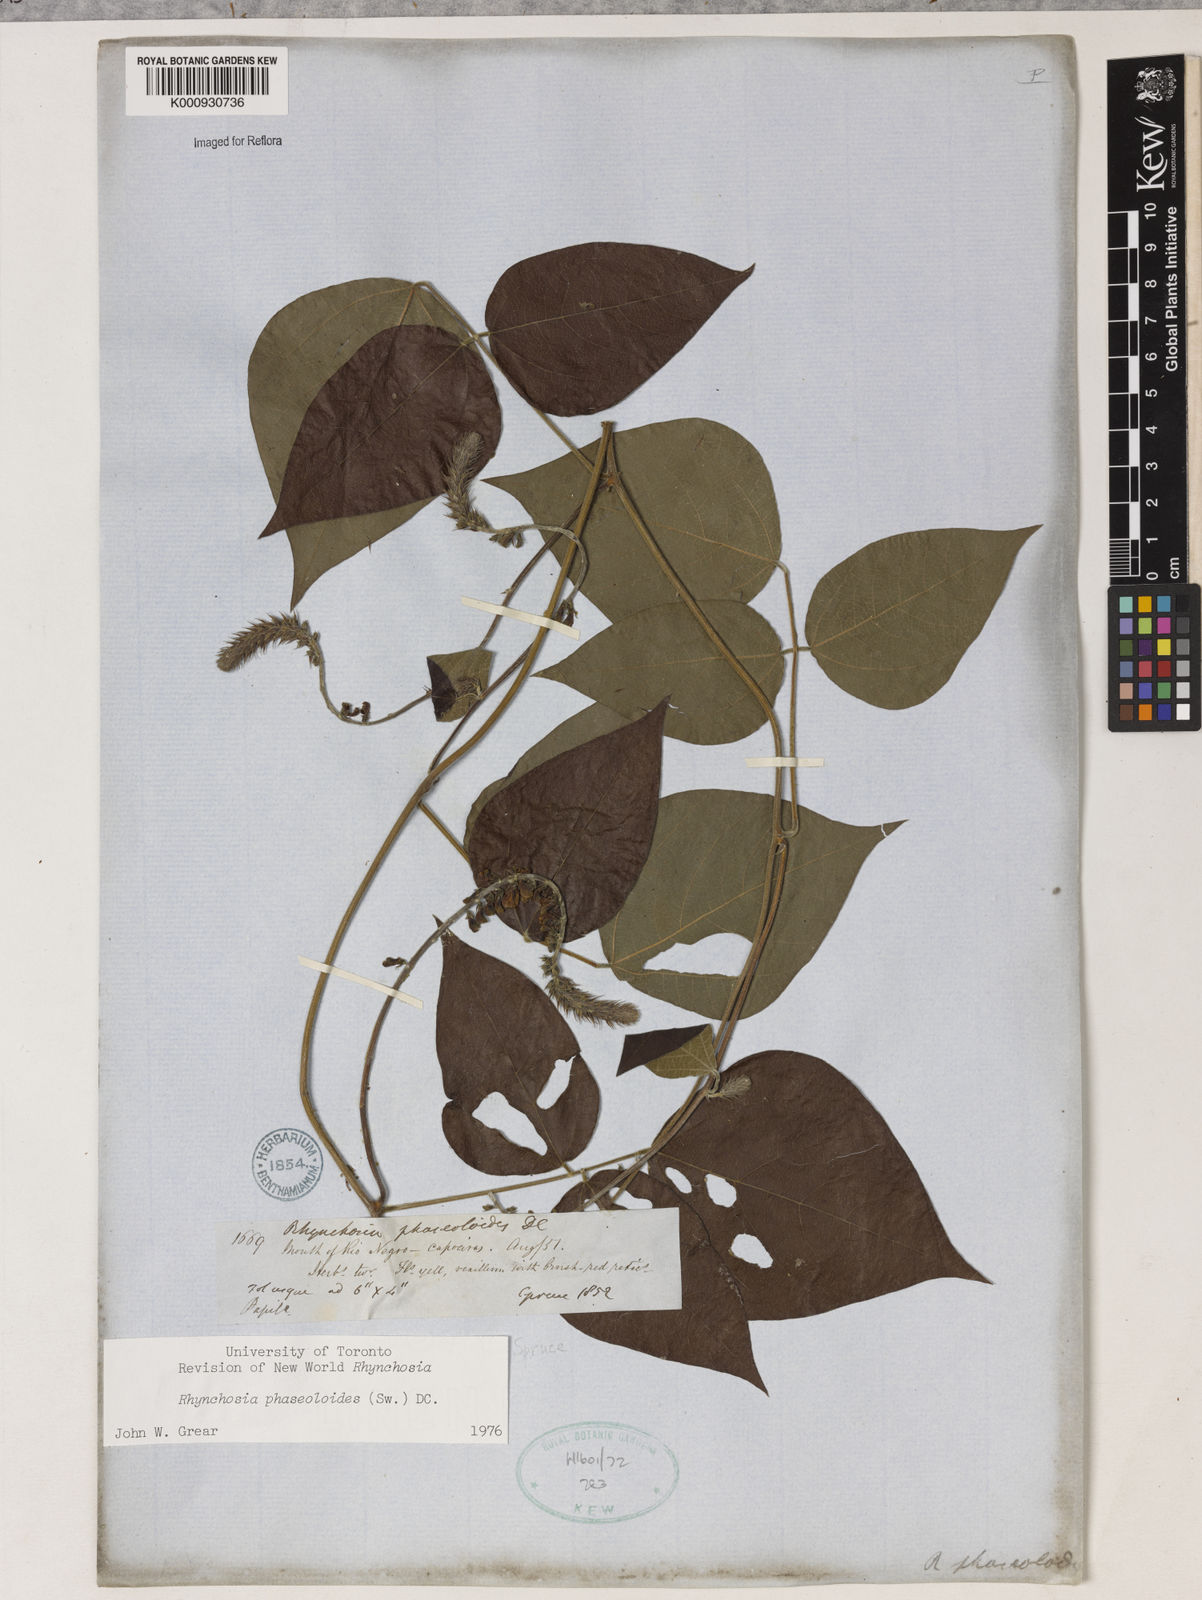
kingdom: Plantae
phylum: Tracheophyta
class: Magnoliopsida
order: Fabales
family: Fabaceae
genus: Rhynchosia
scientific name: Rhynchosia phaseoloides
